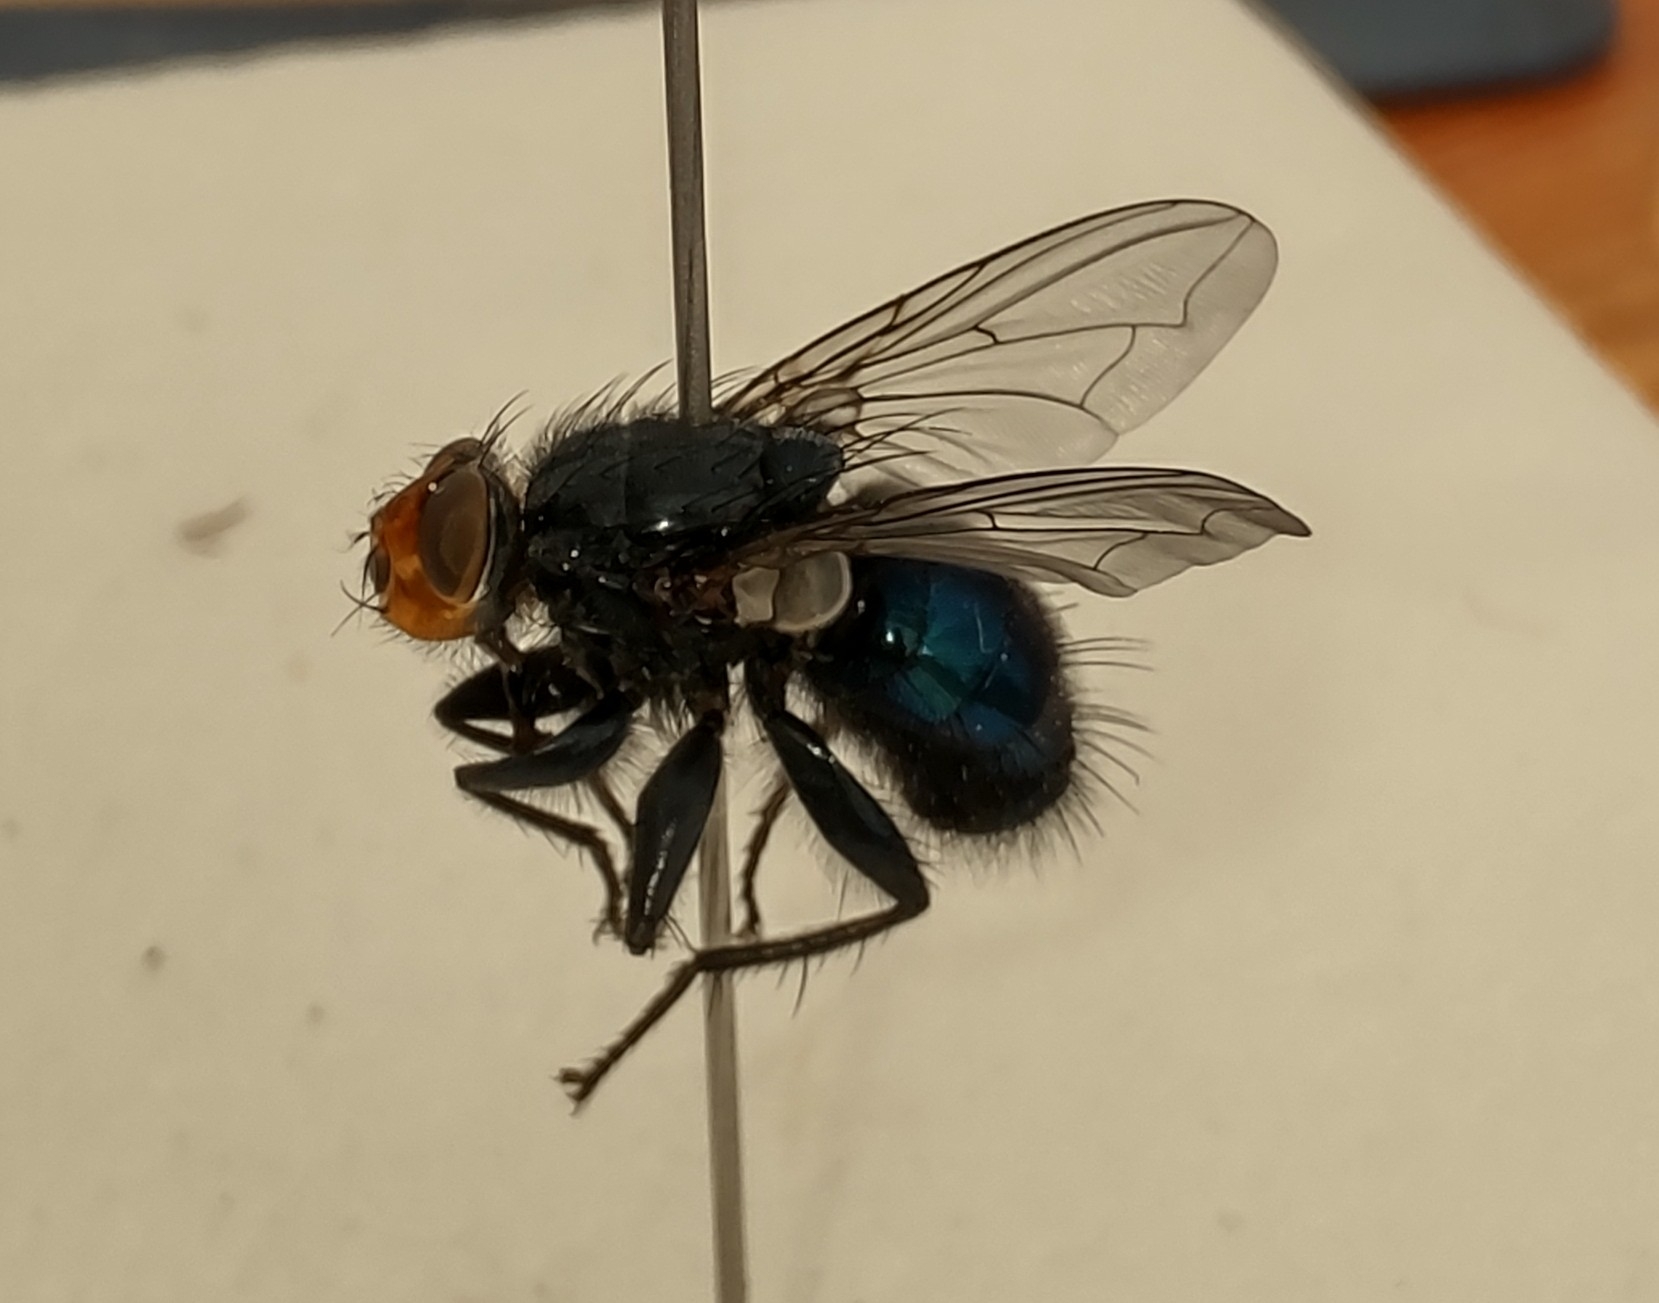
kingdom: Animalia
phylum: Arthropoda
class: Insecta
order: Diptera
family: Calliphoridae
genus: Cynomya
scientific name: Cynomya mortuorum
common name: Dødsflue
